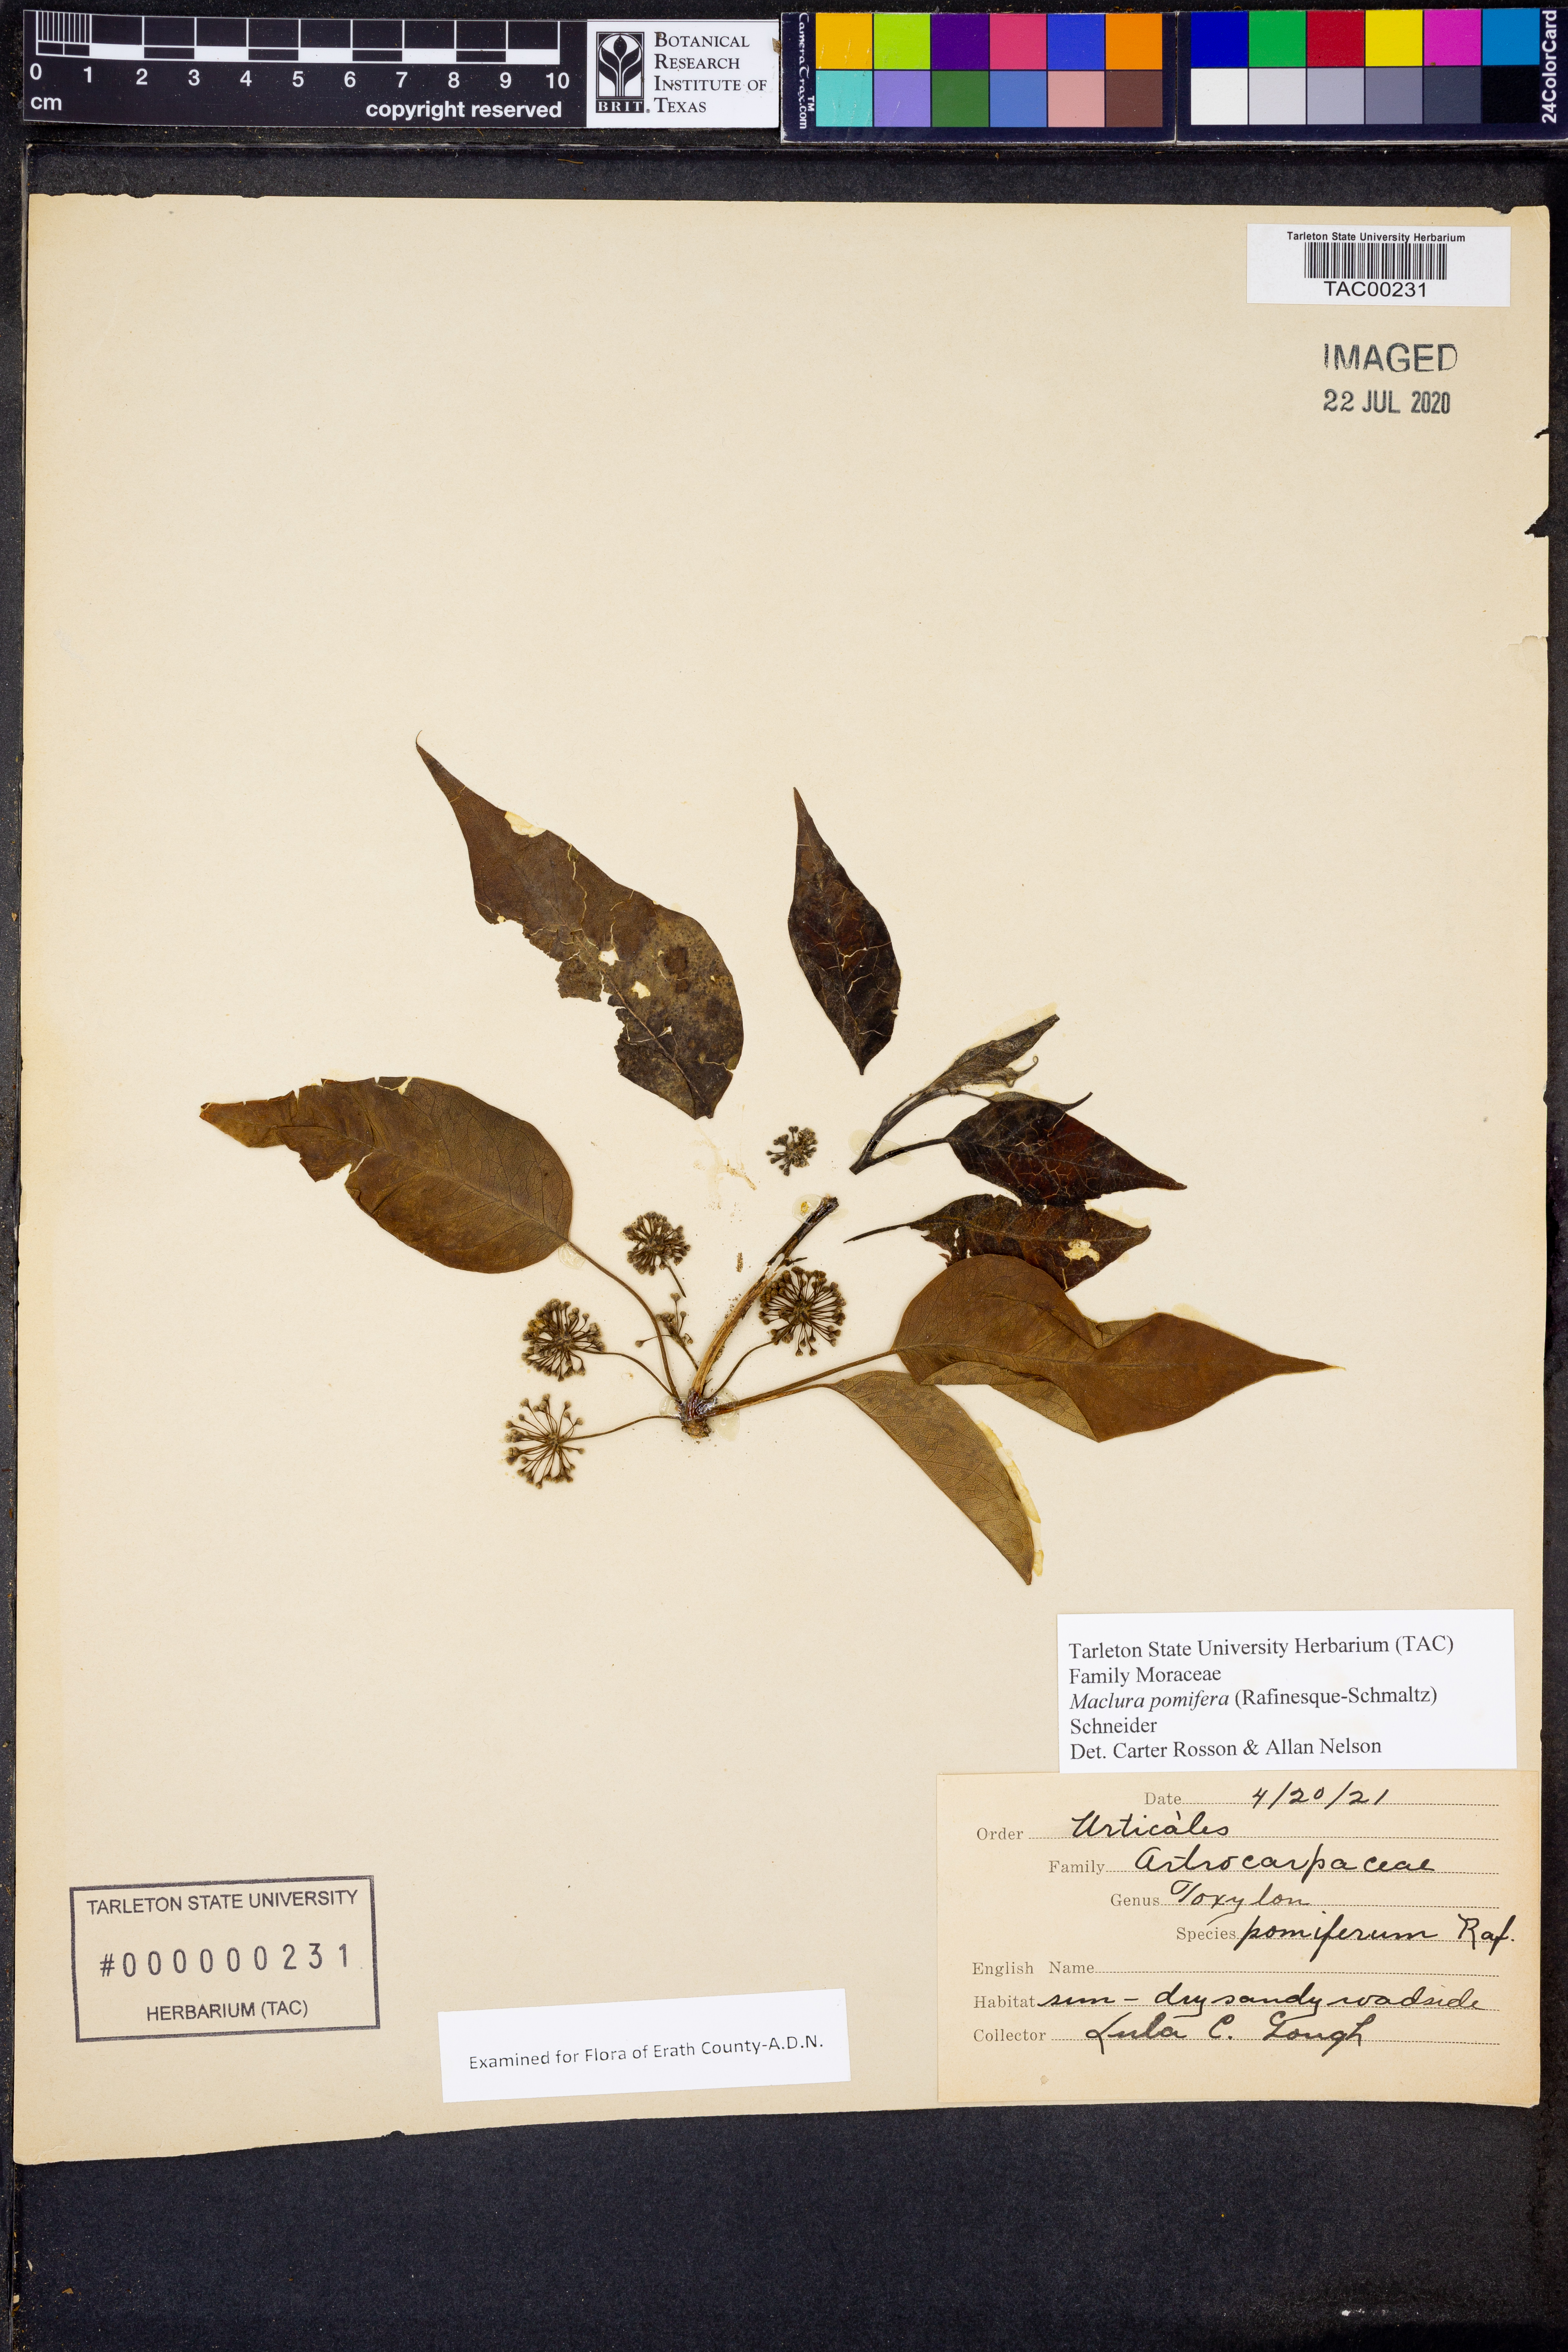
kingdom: Plantae
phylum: Tracheophyta
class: Magnoliopsida
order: Rosales
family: Moraceae
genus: Maclura
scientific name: Maclura pomifera
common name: Osage-orange
